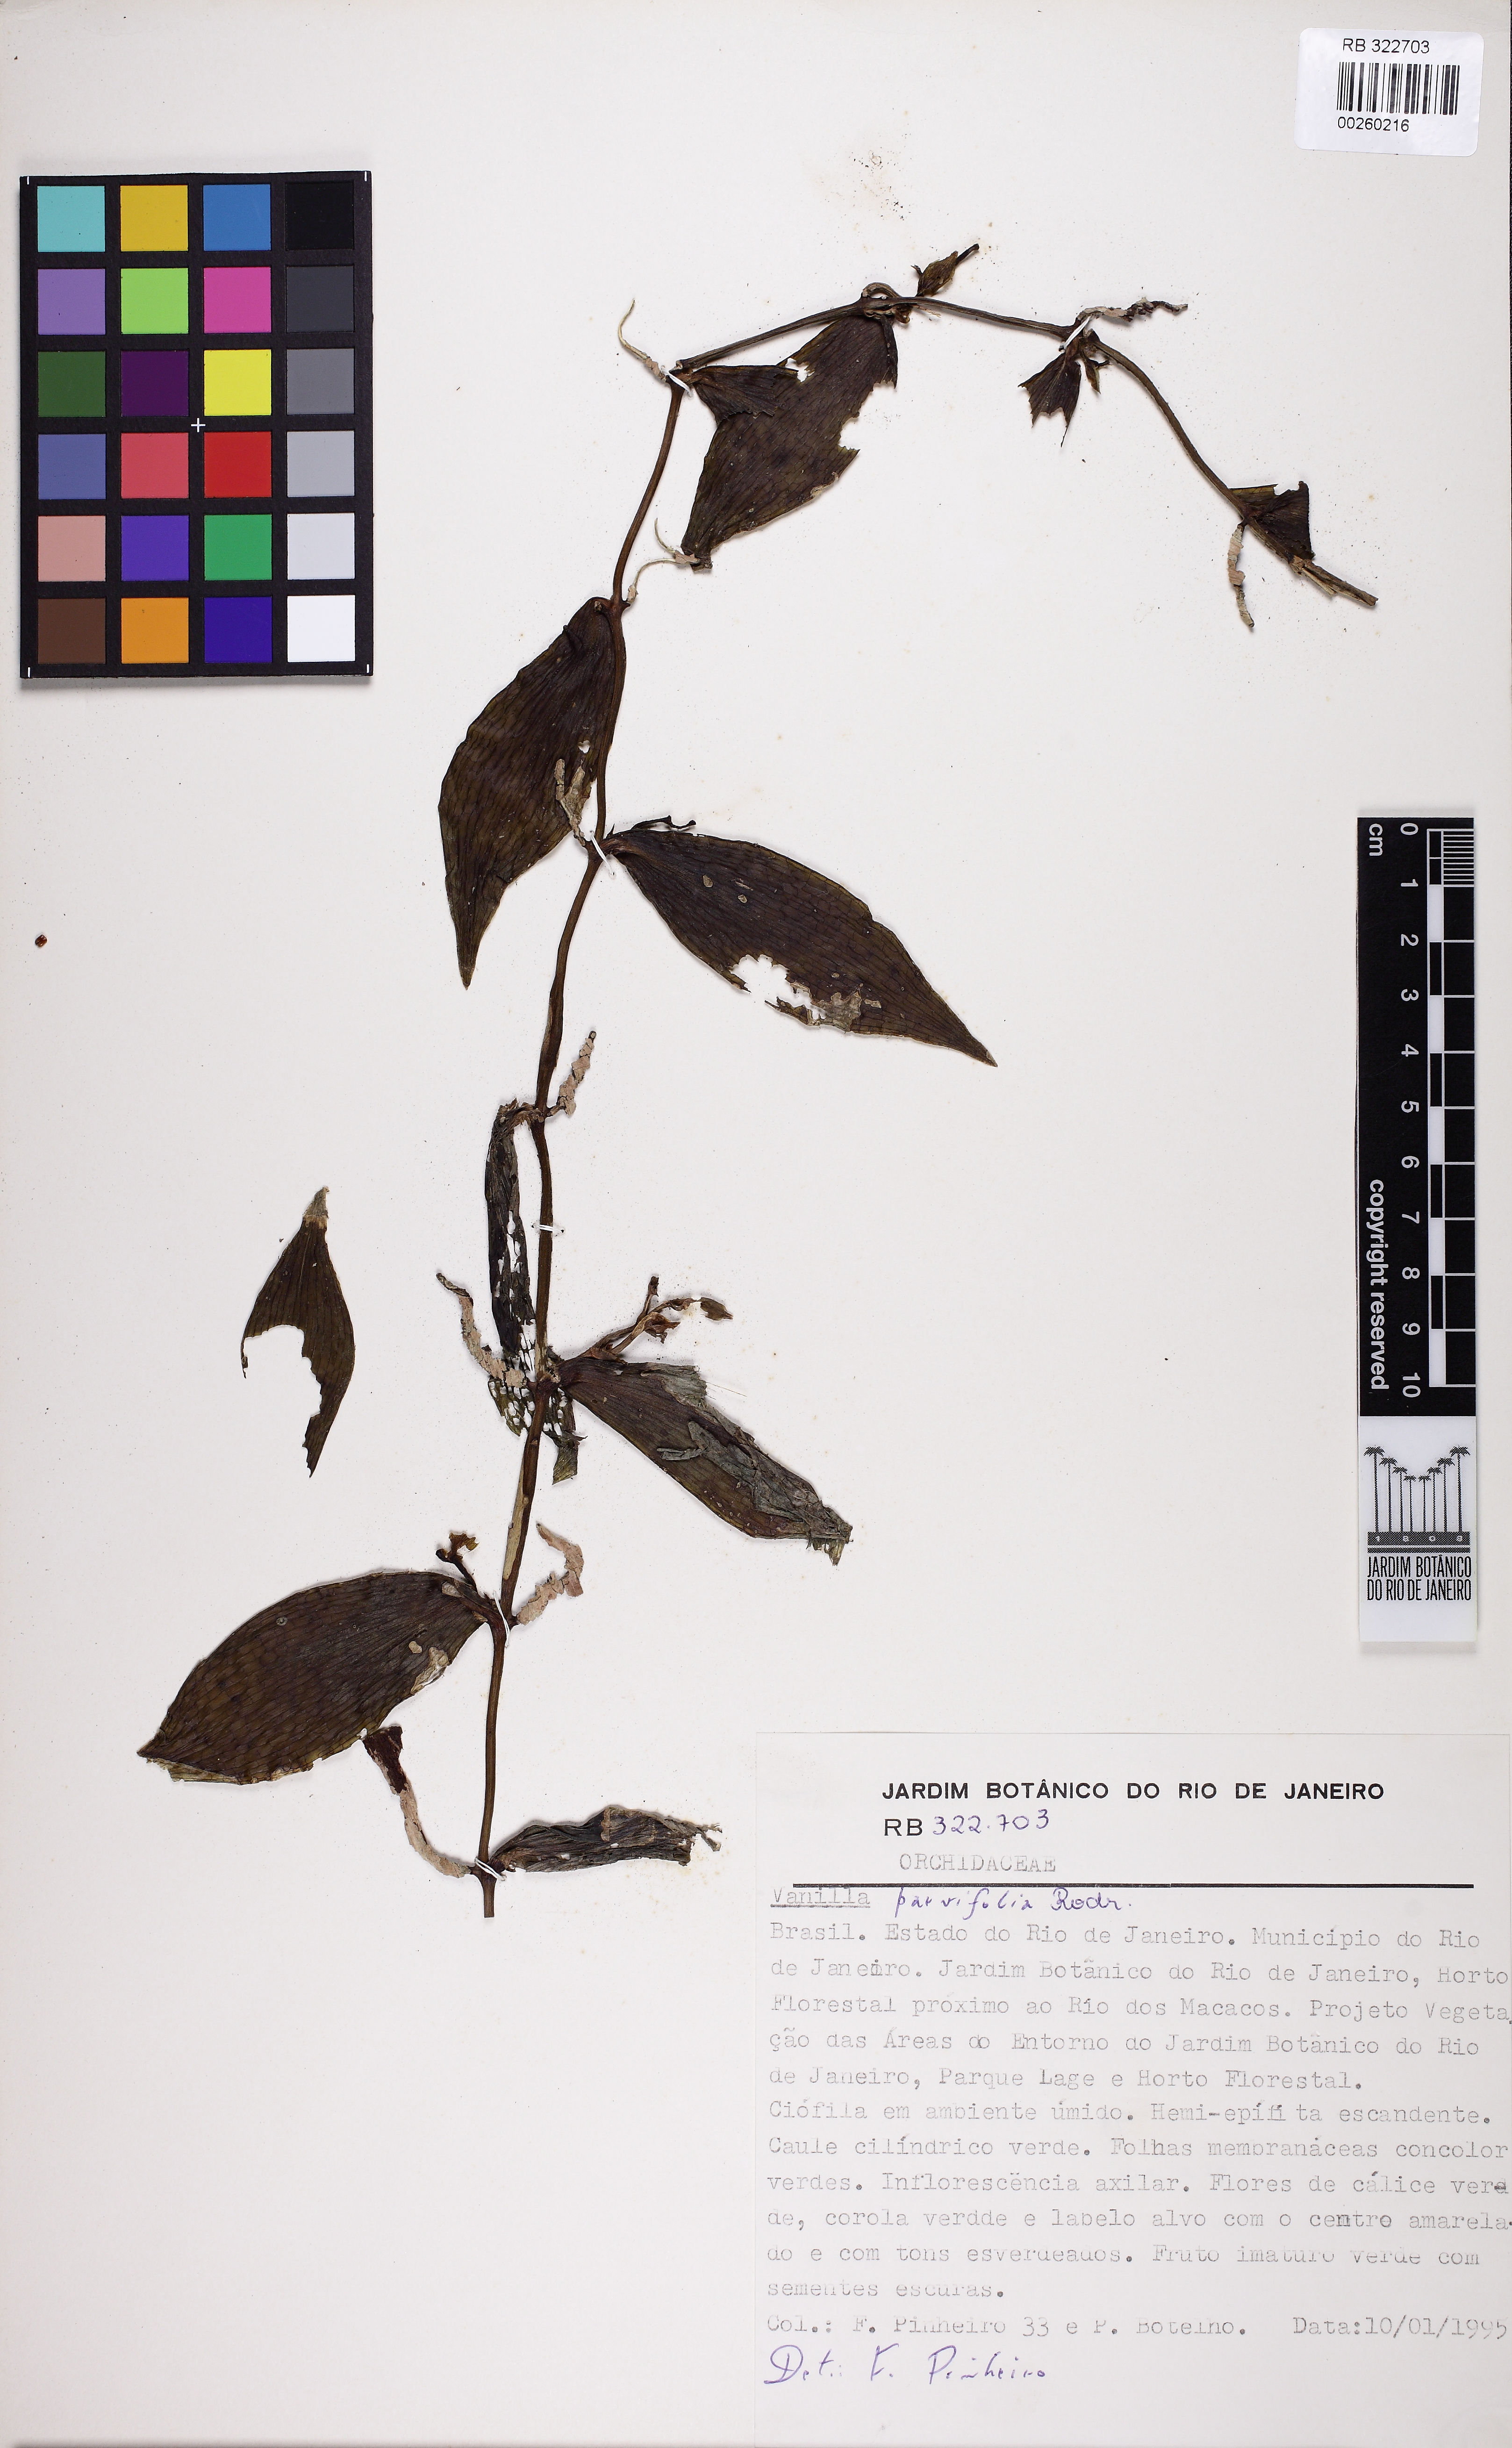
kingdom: Plantae
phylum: Tracheophyta
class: Liliopsida
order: Asparagales
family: Orchidaceae
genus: Vanilla
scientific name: Vanilla parvifolia
